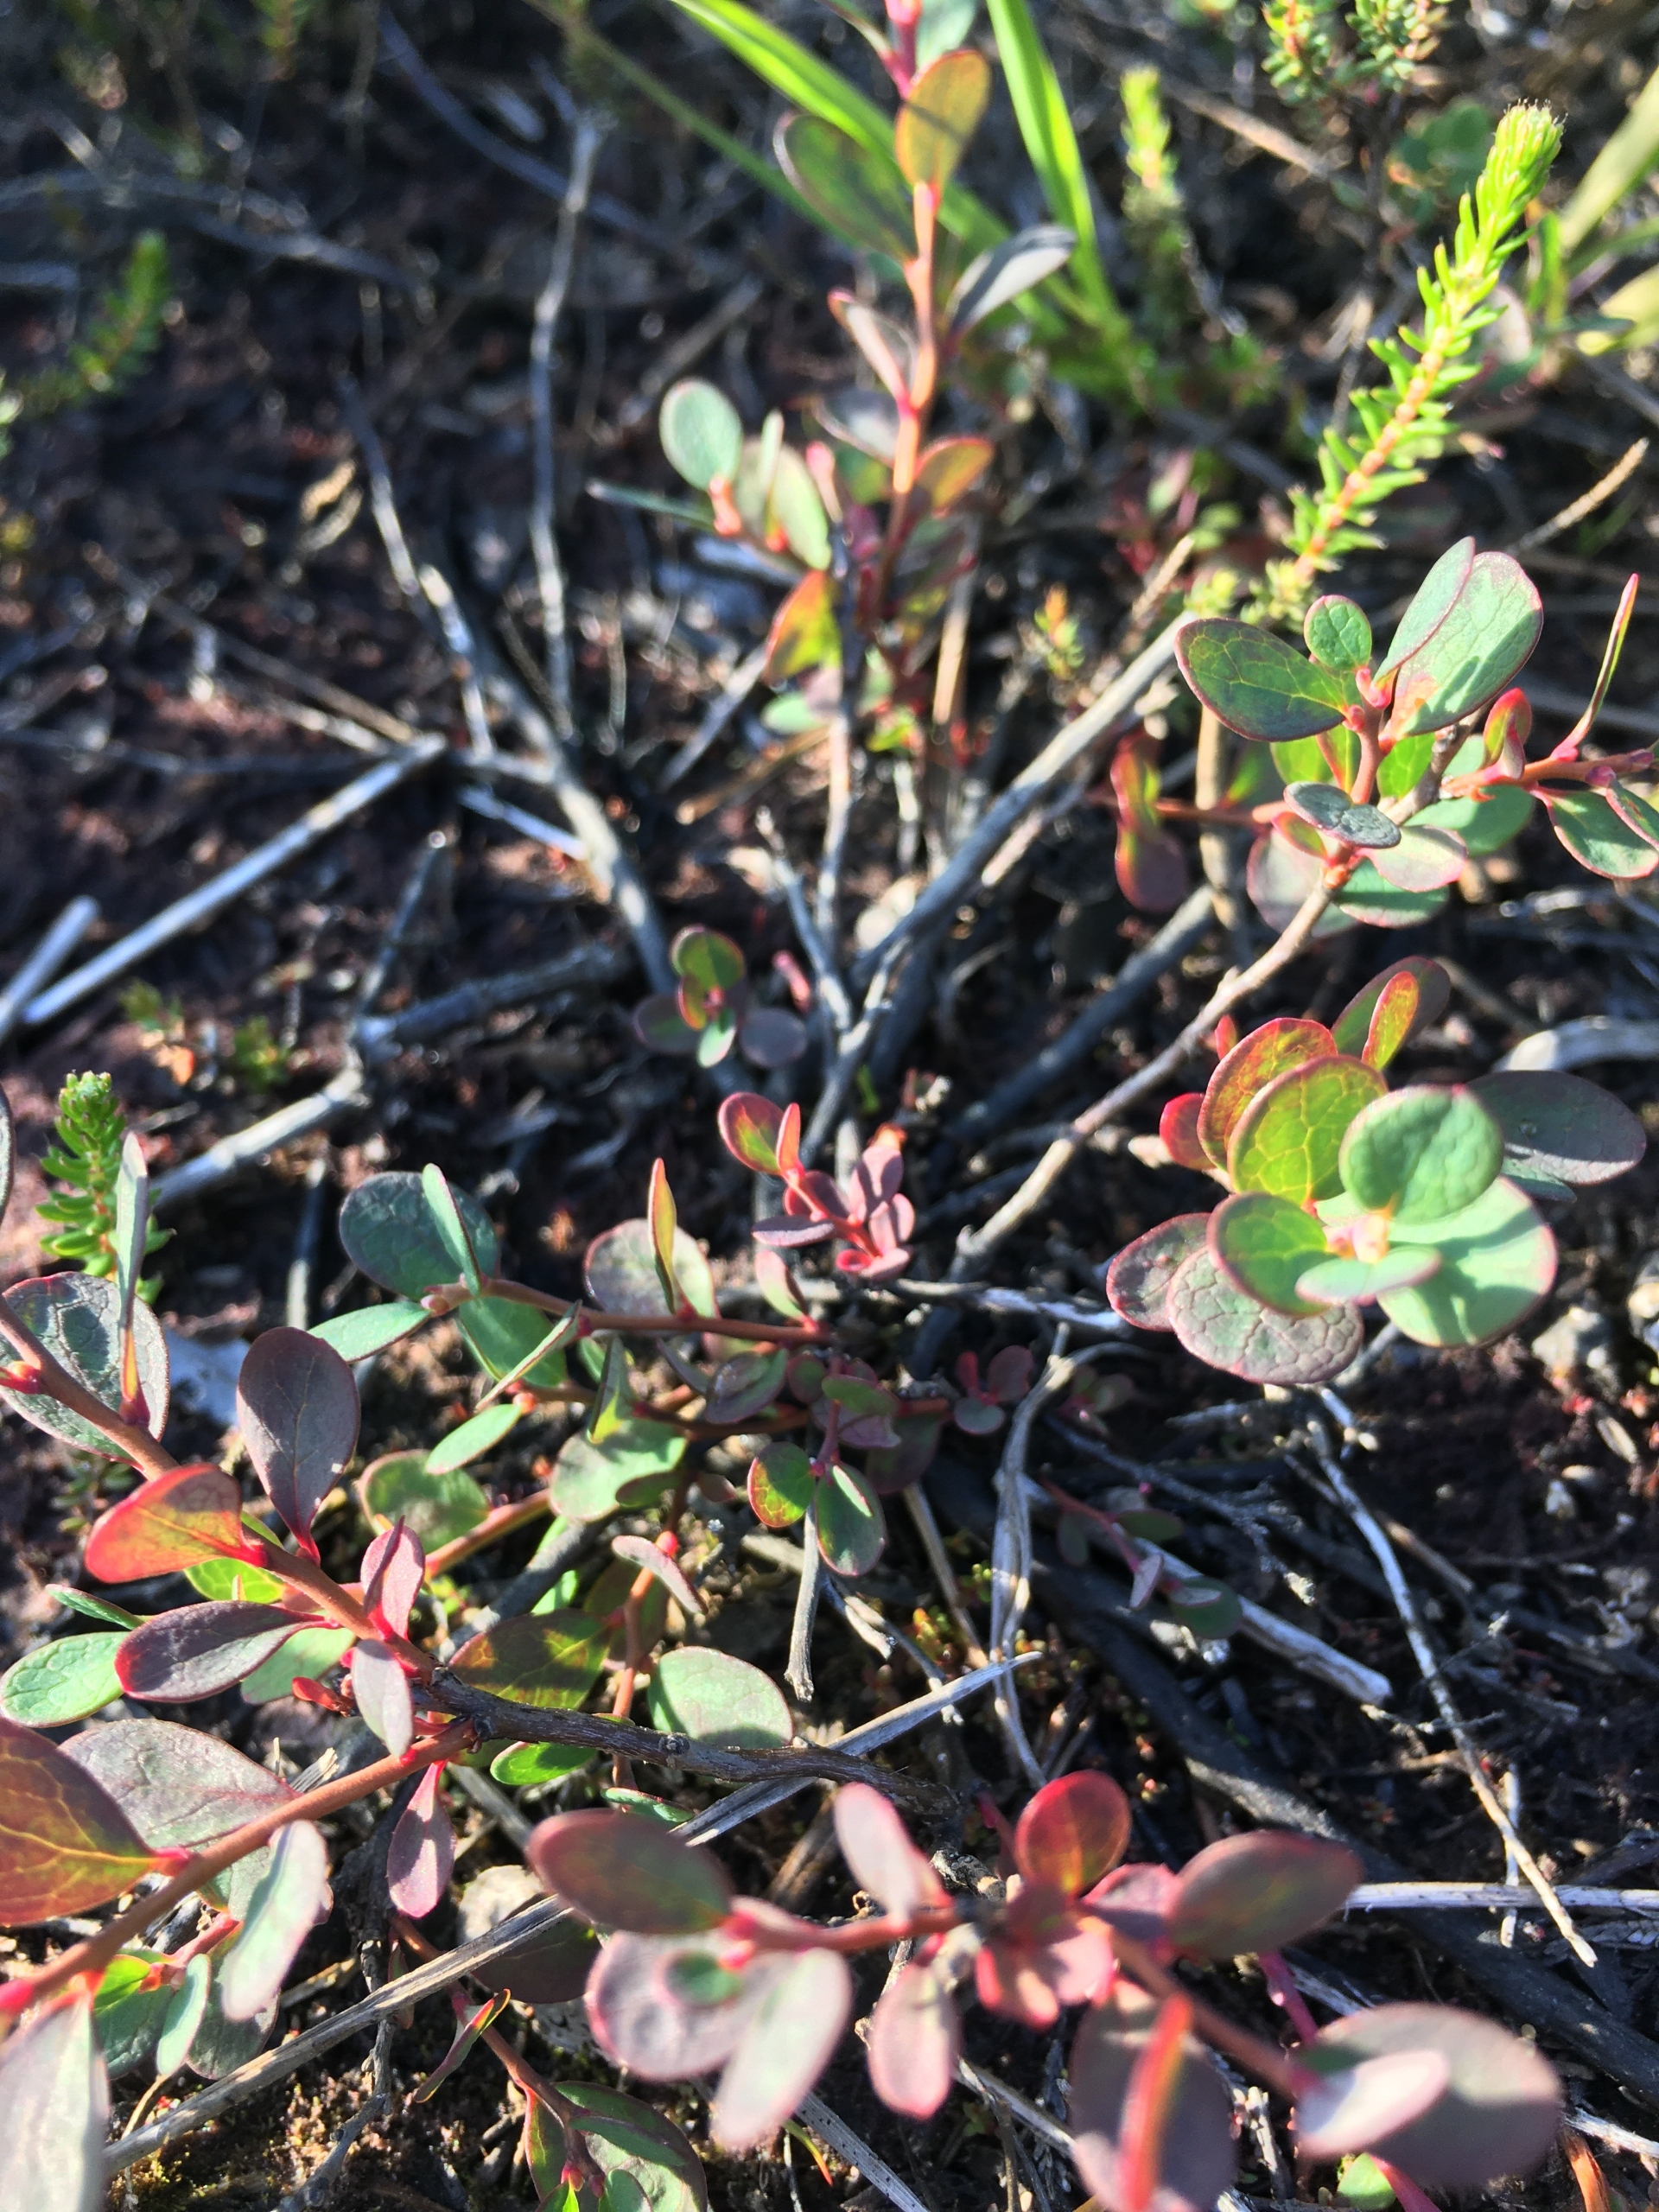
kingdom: Plantae
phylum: Tracheophyta
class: Magnoliopsida
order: Ericales
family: Ericaceae
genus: Vaccinium
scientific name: Vaccinium uliginosum
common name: Mose-bølle
